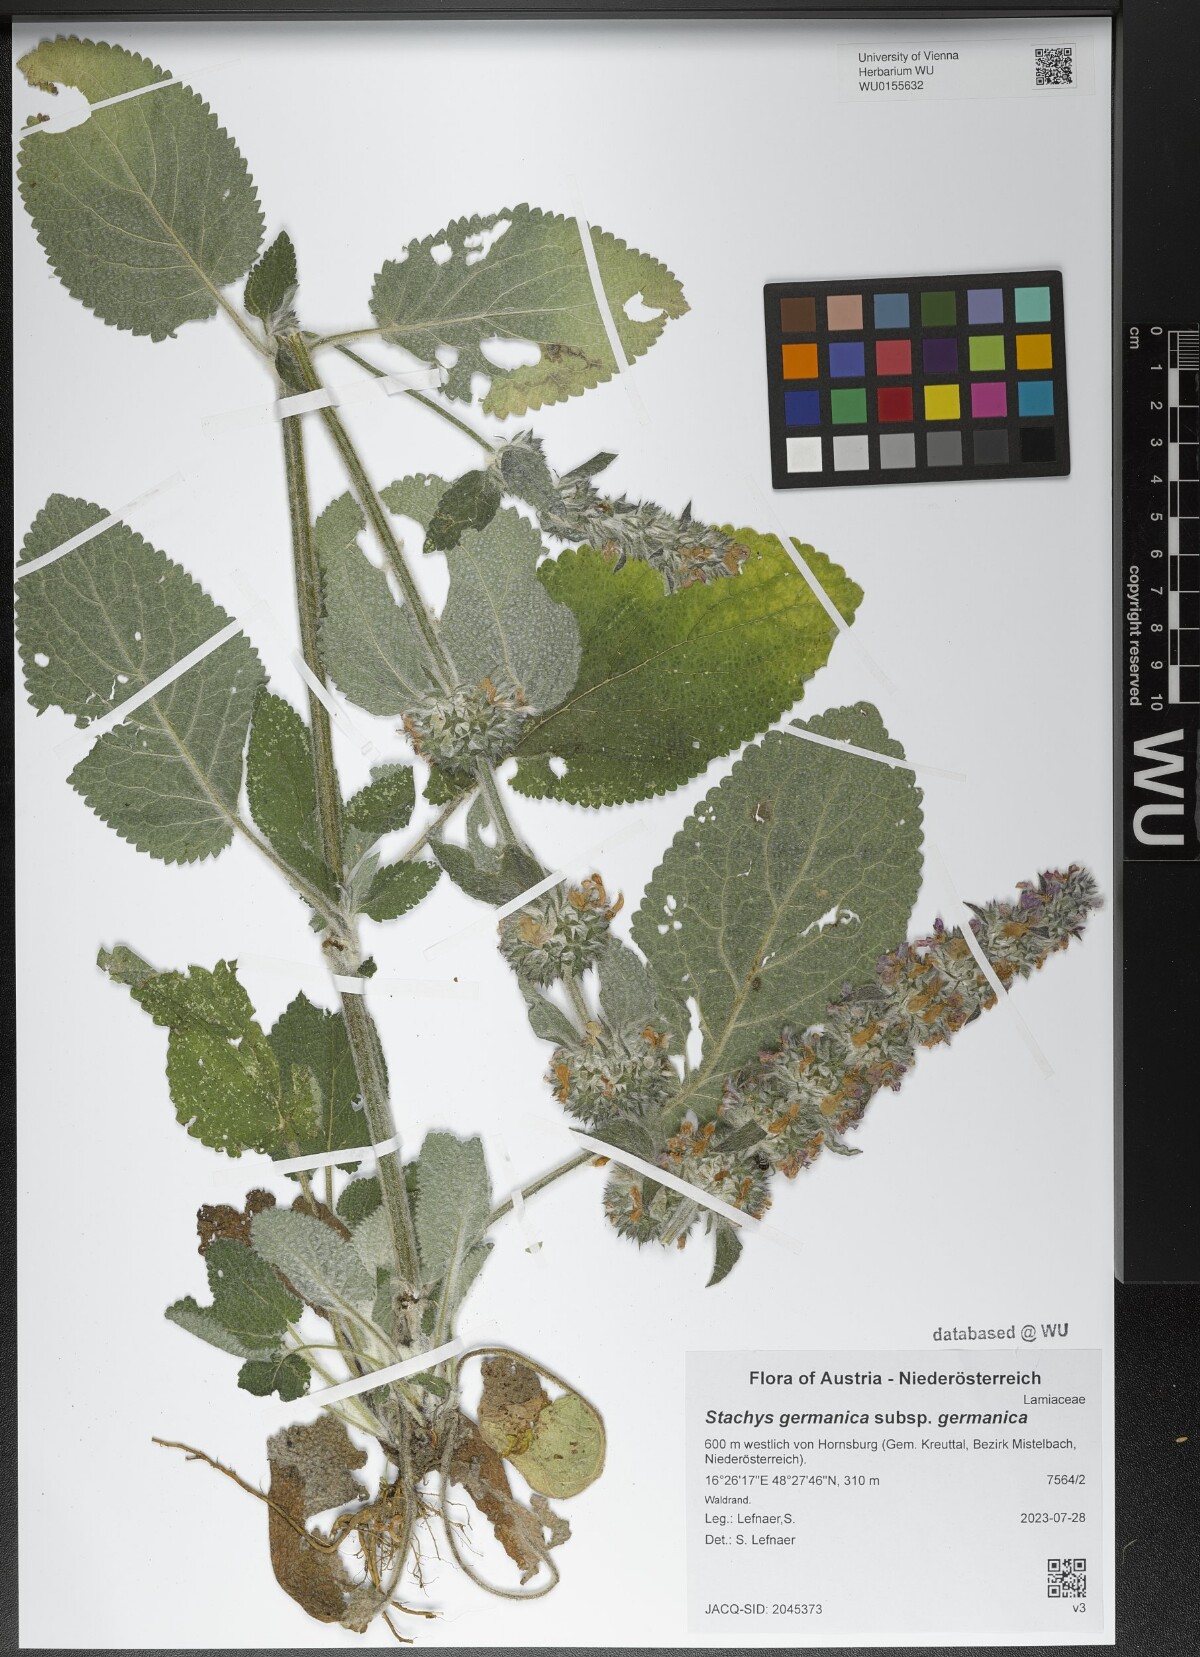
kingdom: Plantae
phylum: Tracheophyta
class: Magnoliopsida
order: Lamiales
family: Lamiaceae
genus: Stachys
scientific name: Stachys germanica
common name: Downy woundwort
